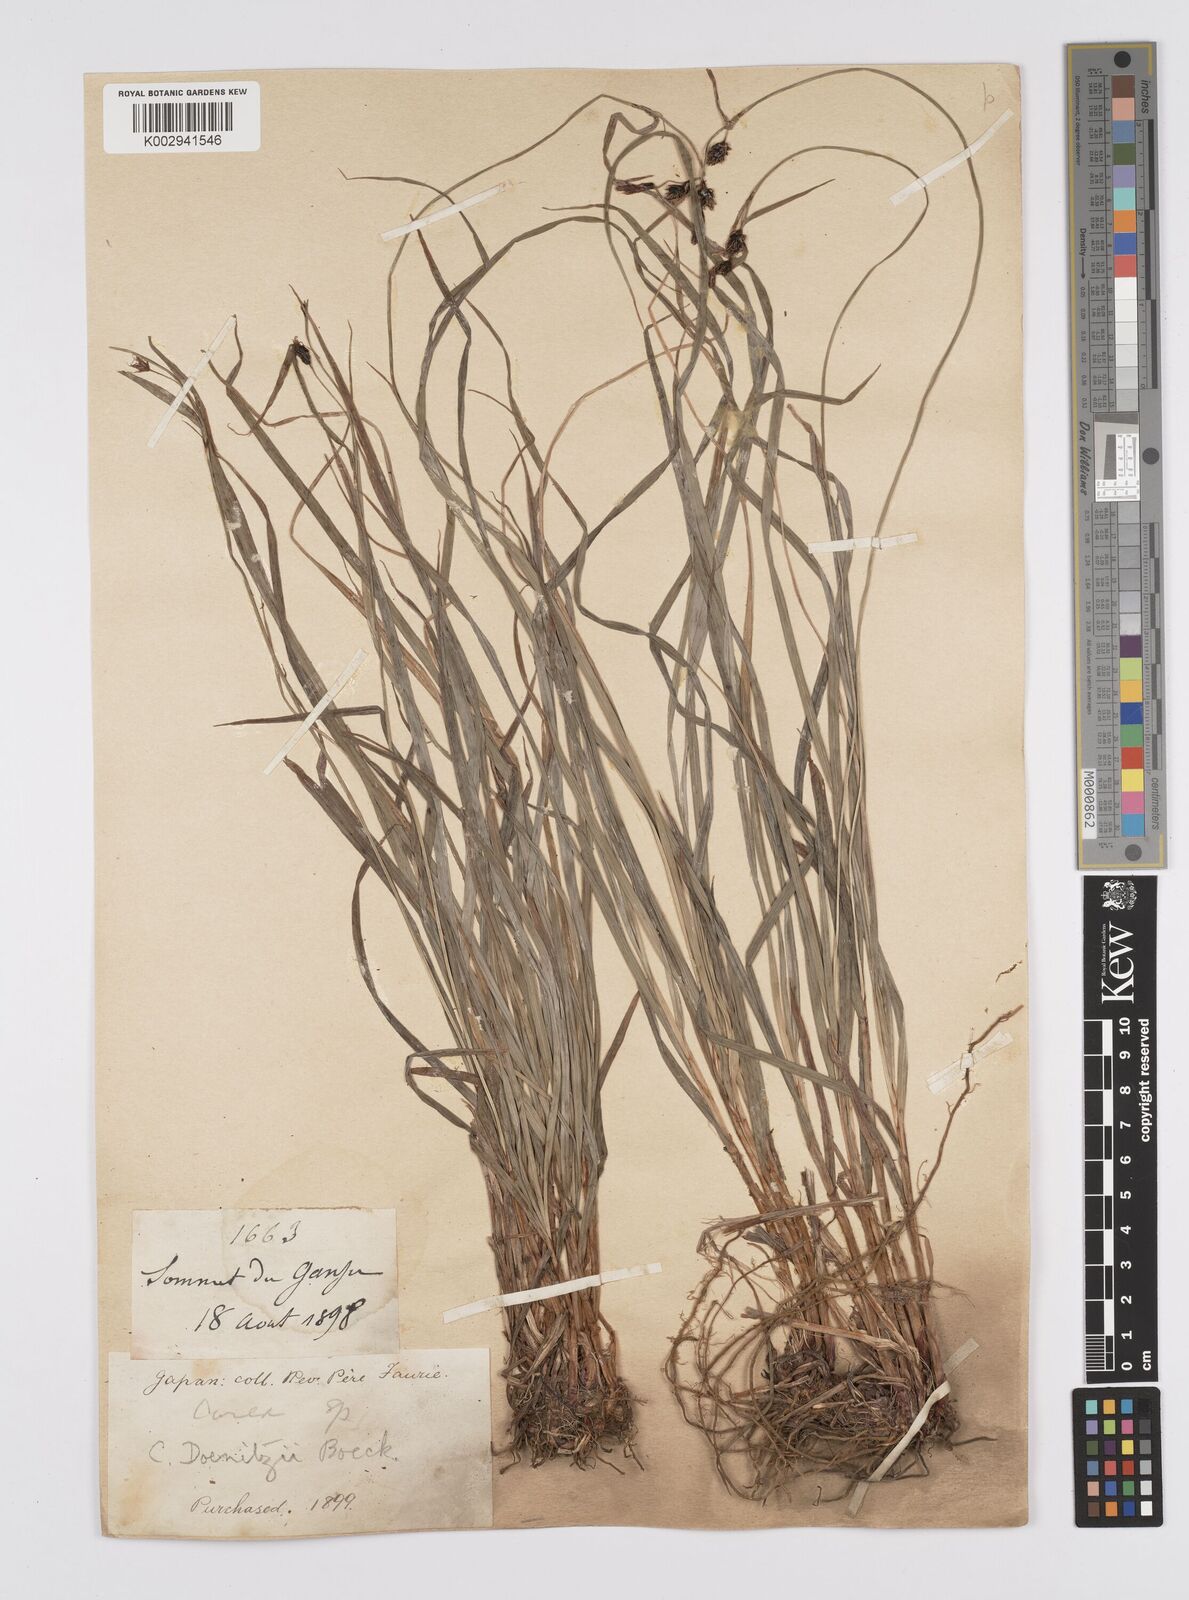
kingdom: Plantae
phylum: Tracheophyta
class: Liliopsida
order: Poales
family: Cyperaceae
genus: Carex
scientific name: Carex doenitzii
